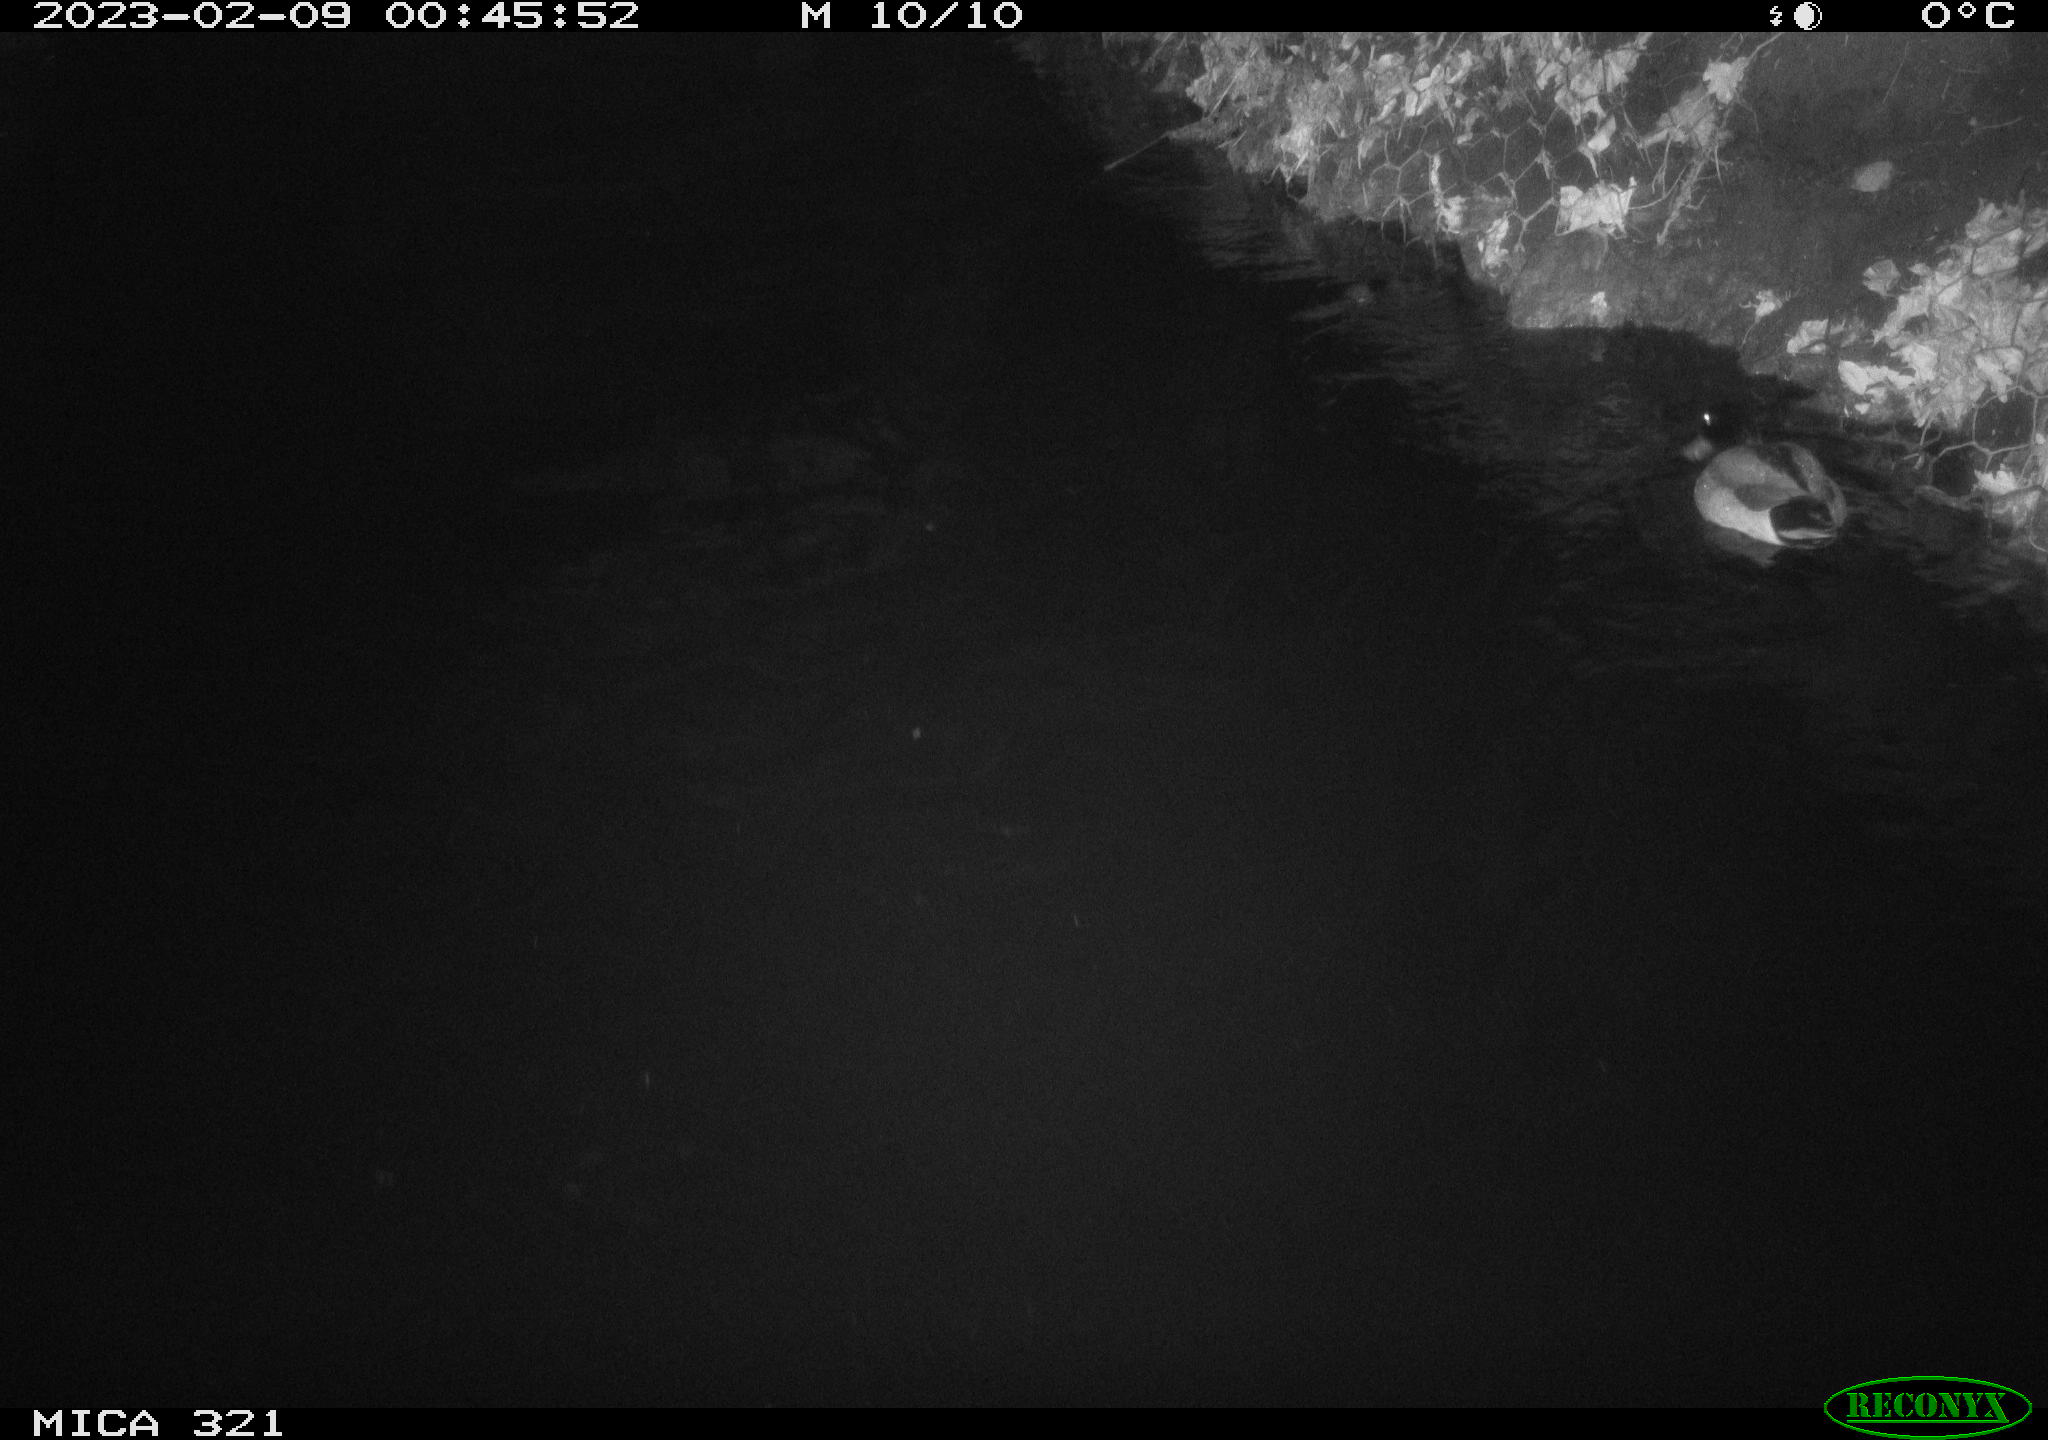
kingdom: Animalia
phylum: Chordata
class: Aves
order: Anseriformes
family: Anatidae
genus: Anas
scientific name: Anas
